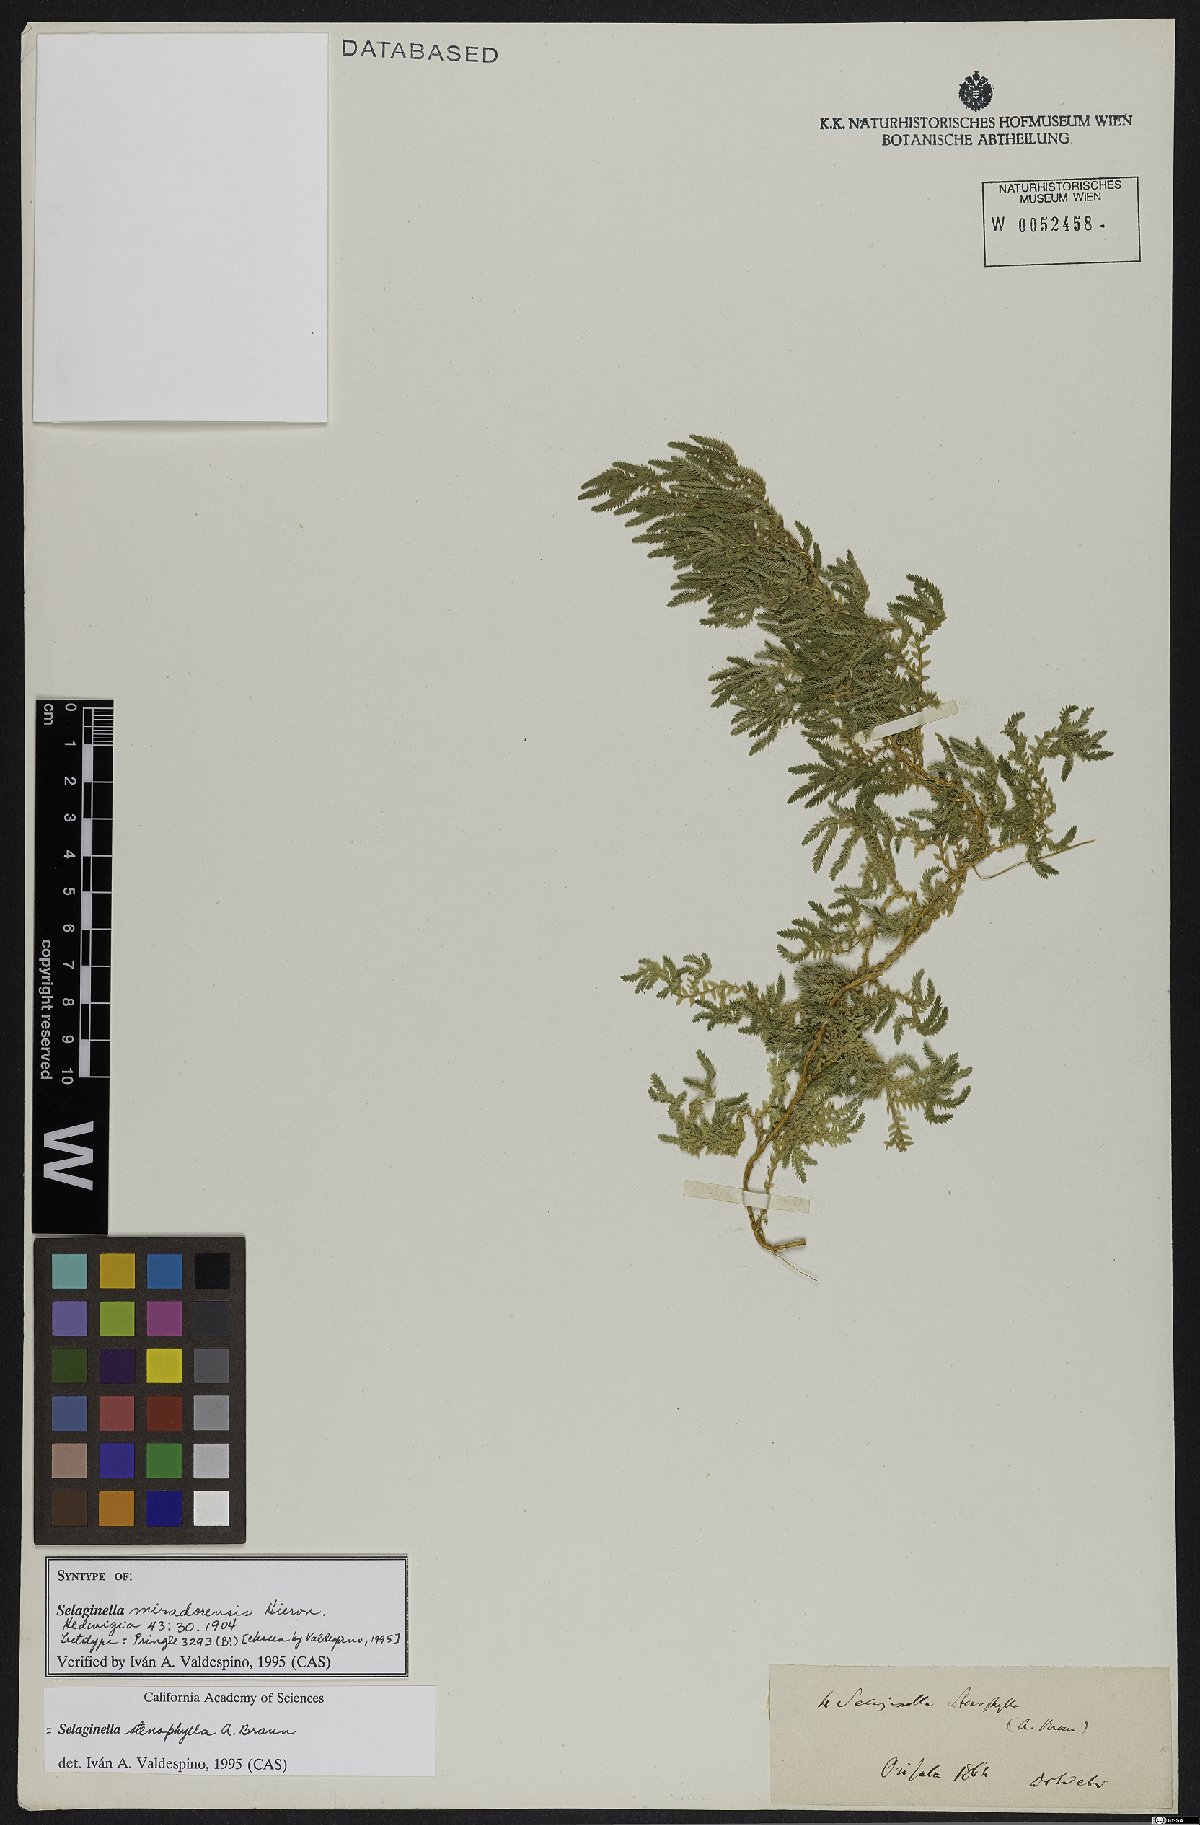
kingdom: Plantae
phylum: Tracheophyta
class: Lycopodiopsida
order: Selaginellales
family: Selaginellaceae
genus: Selaginella
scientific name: Selaginella stenophylla
